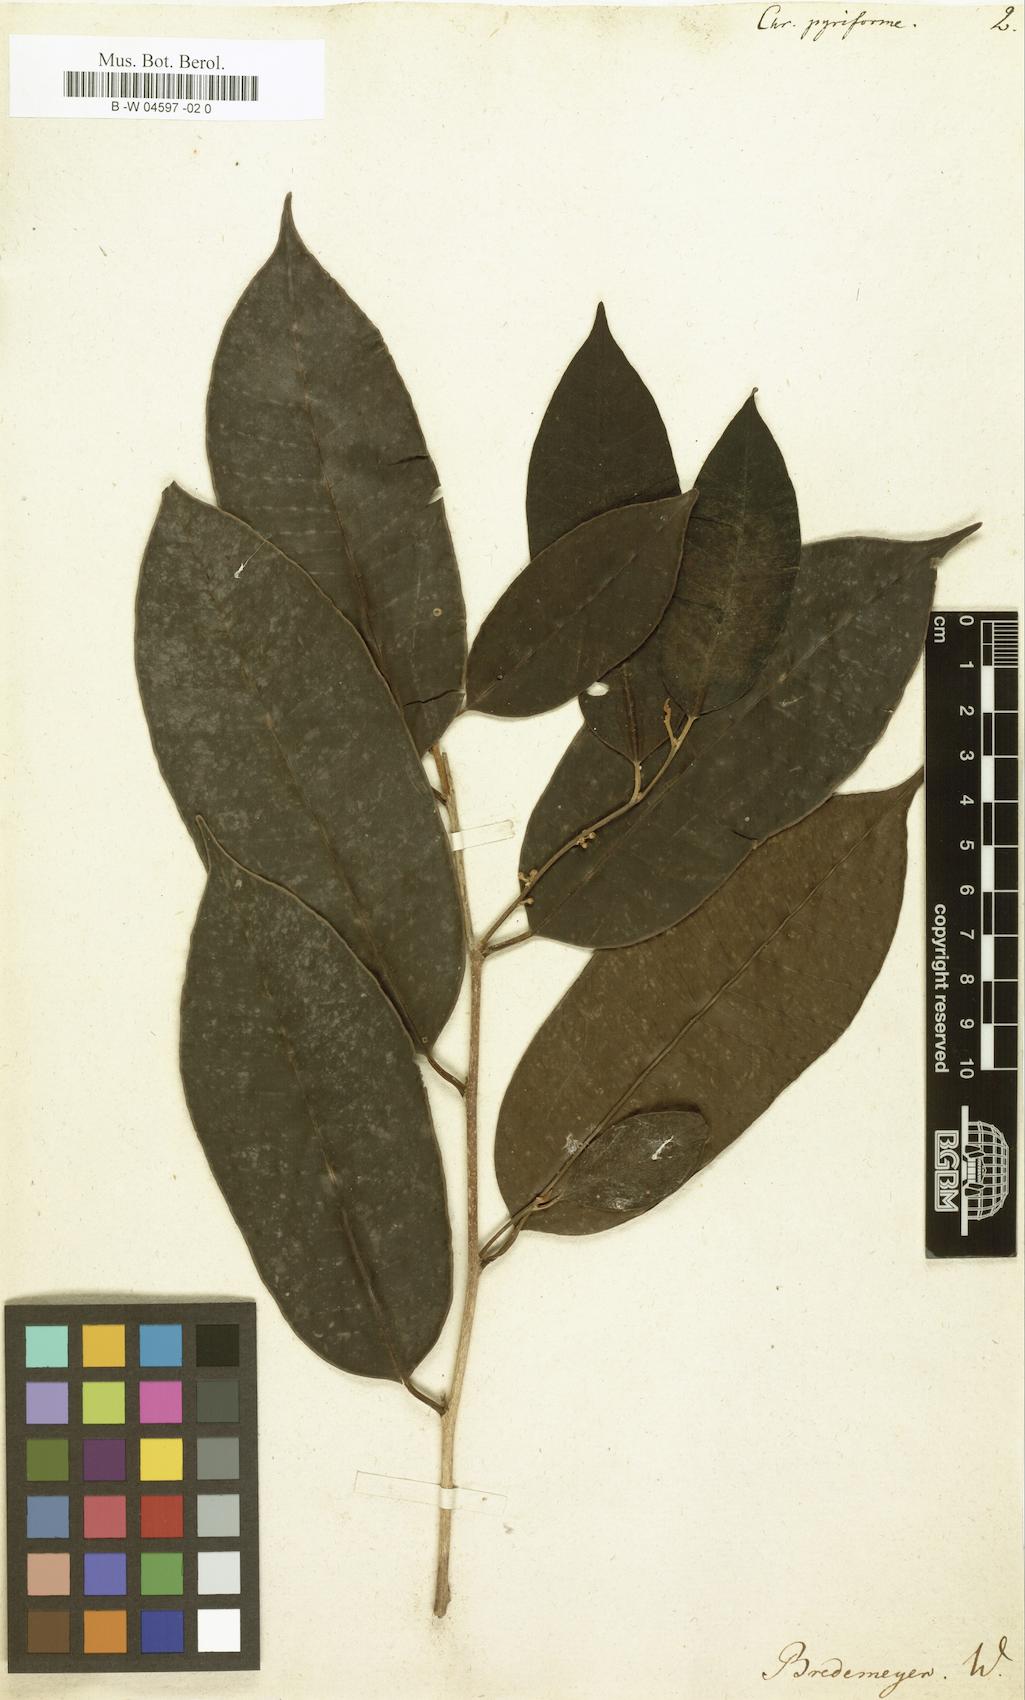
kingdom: Plantae
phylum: Tracheophyta
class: Magnoliopsida
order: Ericales
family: Sapotaceae
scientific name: Sapotaceae
